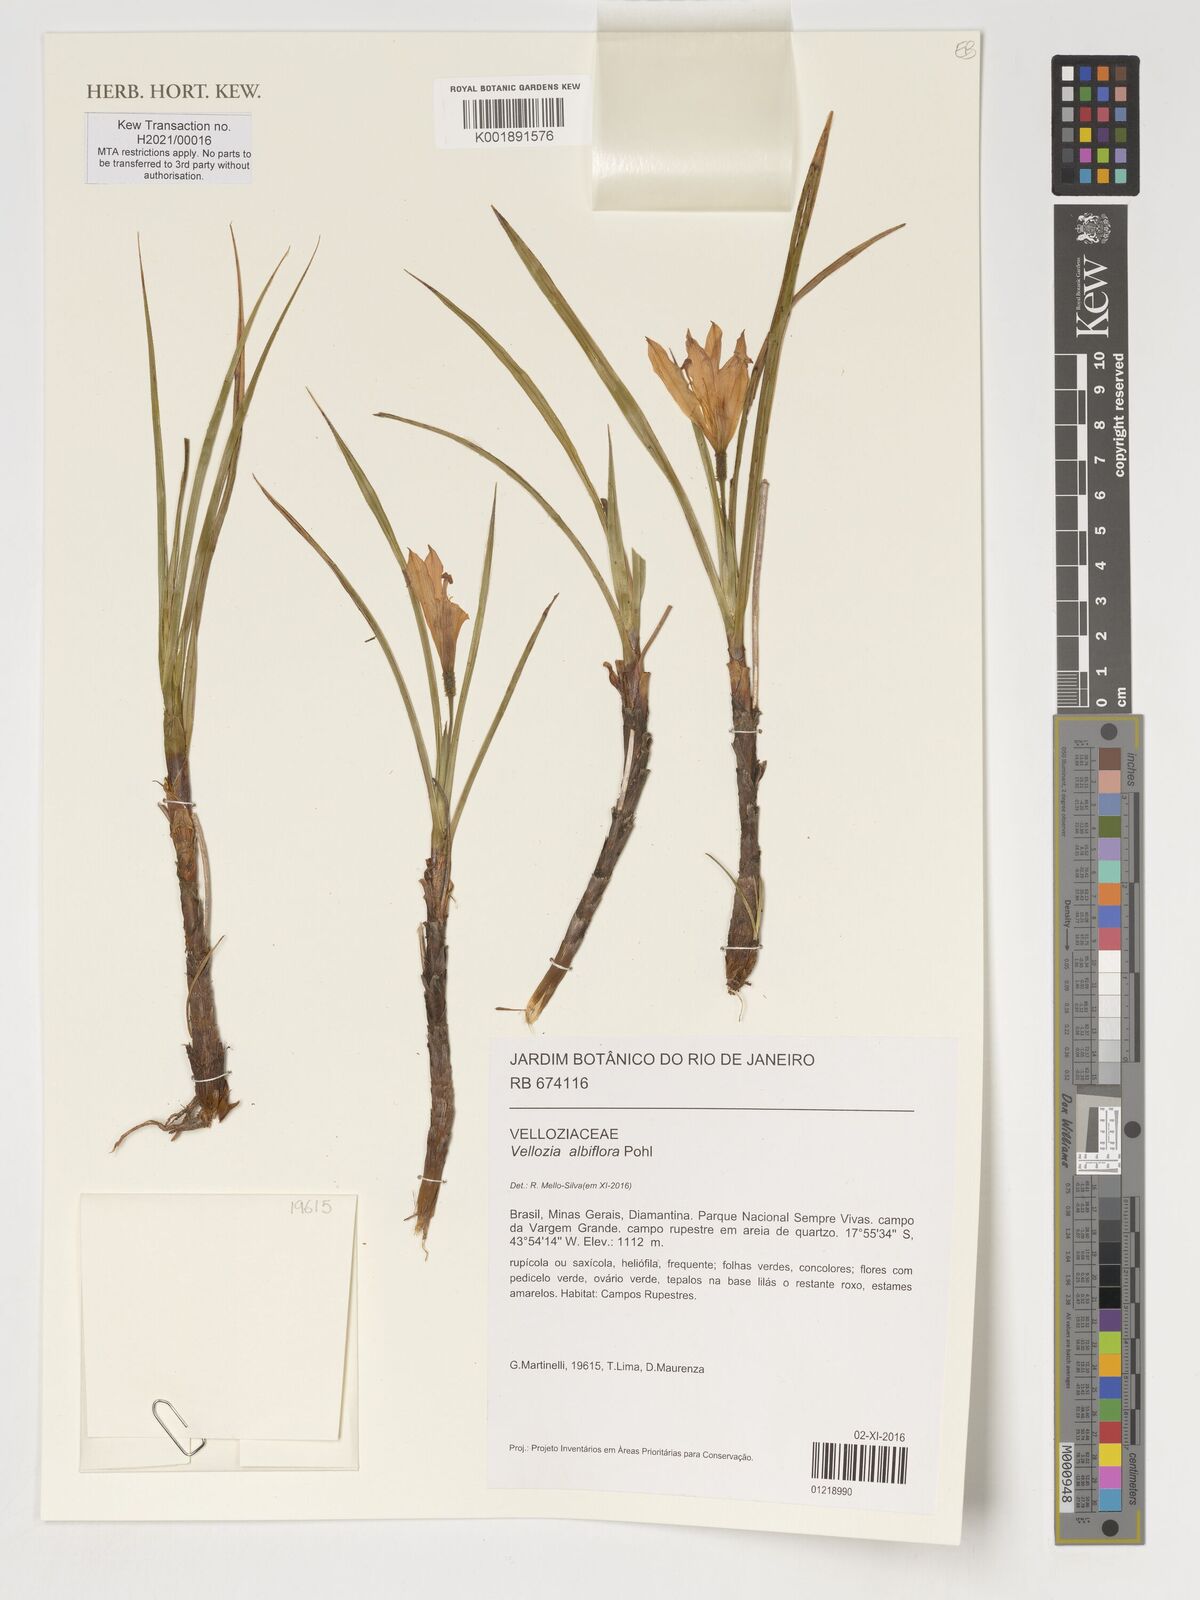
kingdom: Plantae
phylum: Tracheophyta
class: Liliopsida
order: Pandanales
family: Velloziaceae
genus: Vellozia
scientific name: Vellozia albiflora
